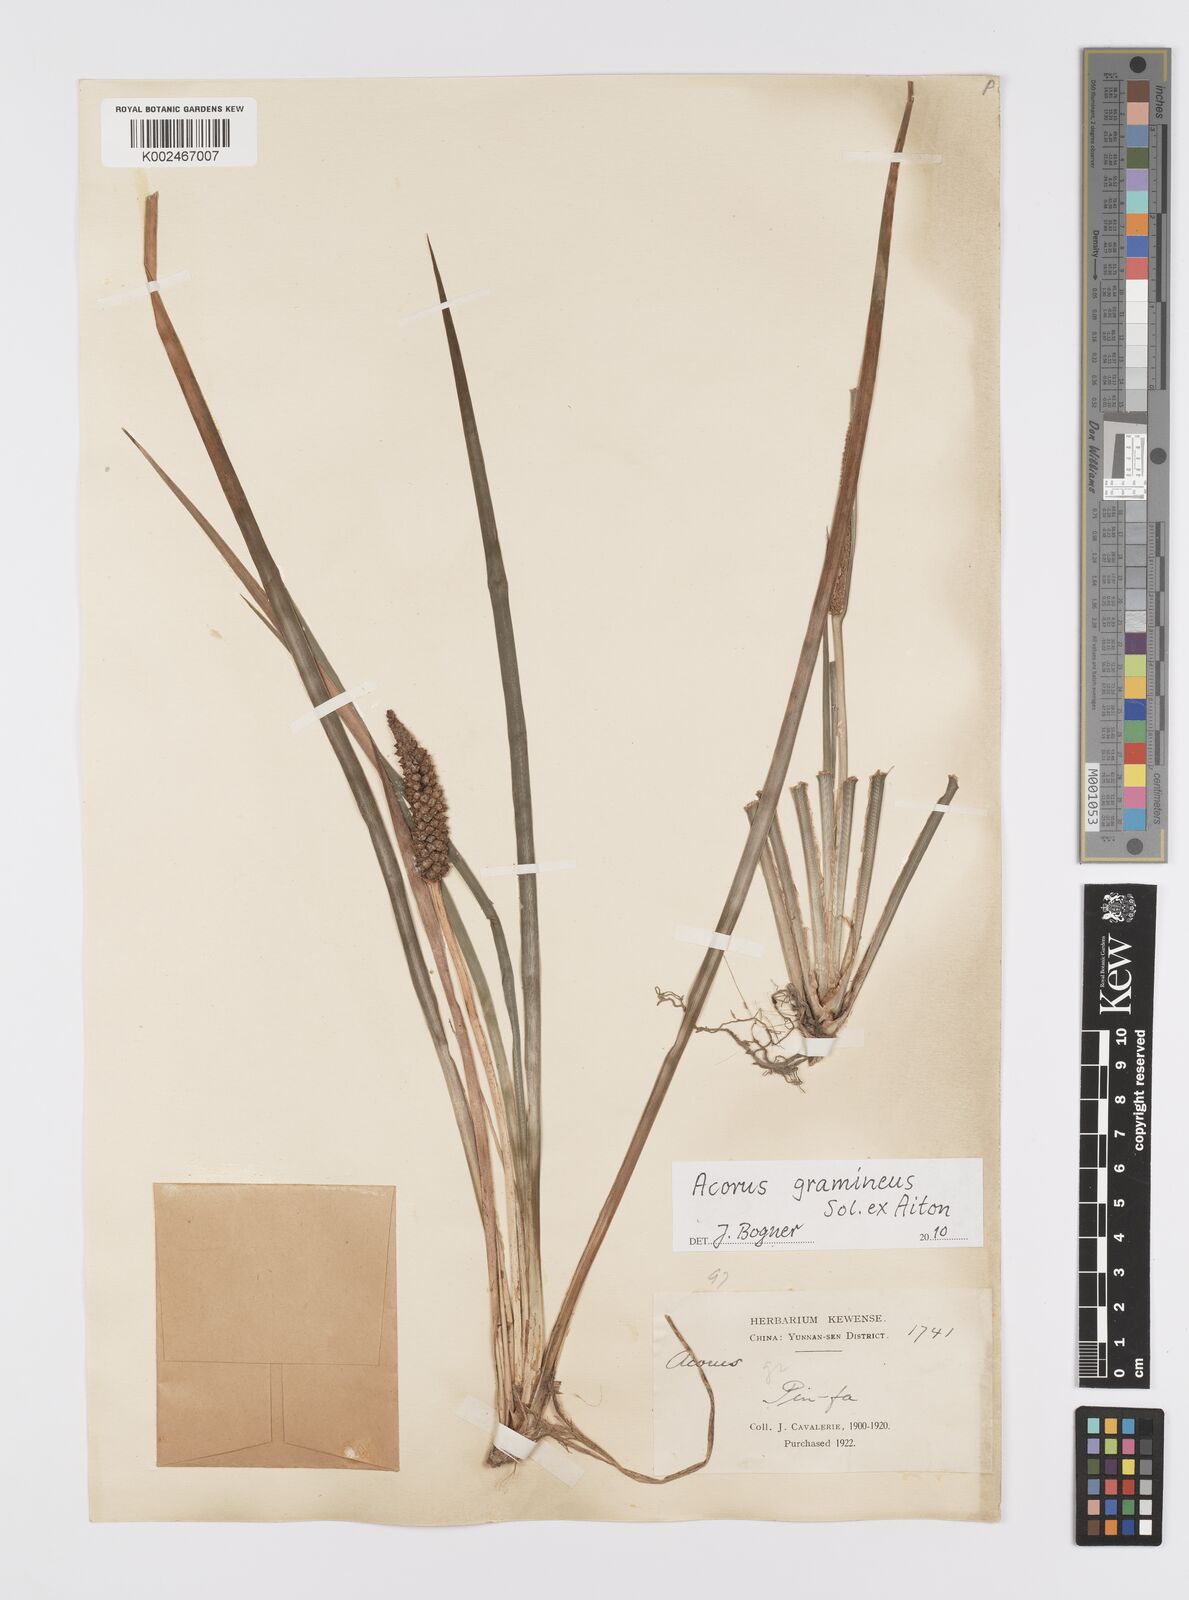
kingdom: Plantae
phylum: Tracheophyta
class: Liliopsida
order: Acorales
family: Acoraceae
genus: Acorus
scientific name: Acorus gramineus
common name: Slender sweet-flag
